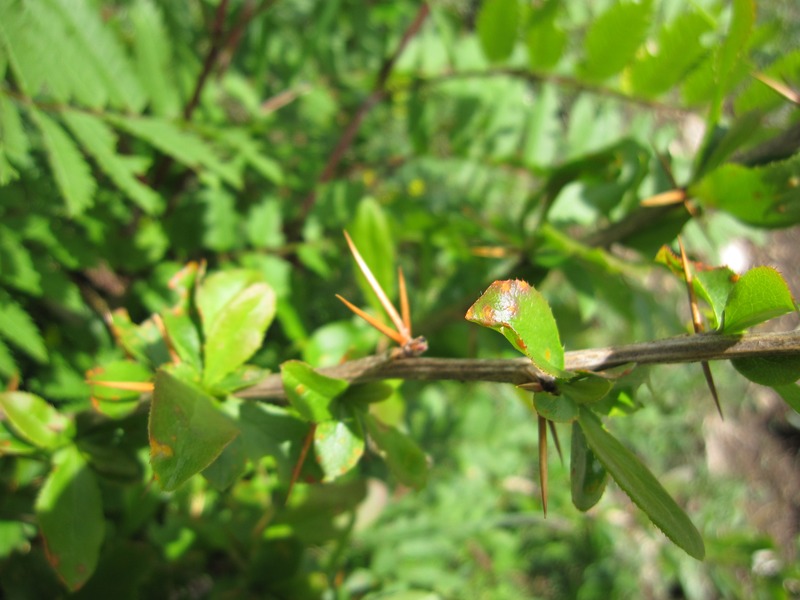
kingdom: Fungi
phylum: Basidiomycota
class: Pucciniomycetes
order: Pucciniales
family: Pucciniaceae
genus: Puccinia
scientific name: Puccinia graminis
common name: Black stem rust
